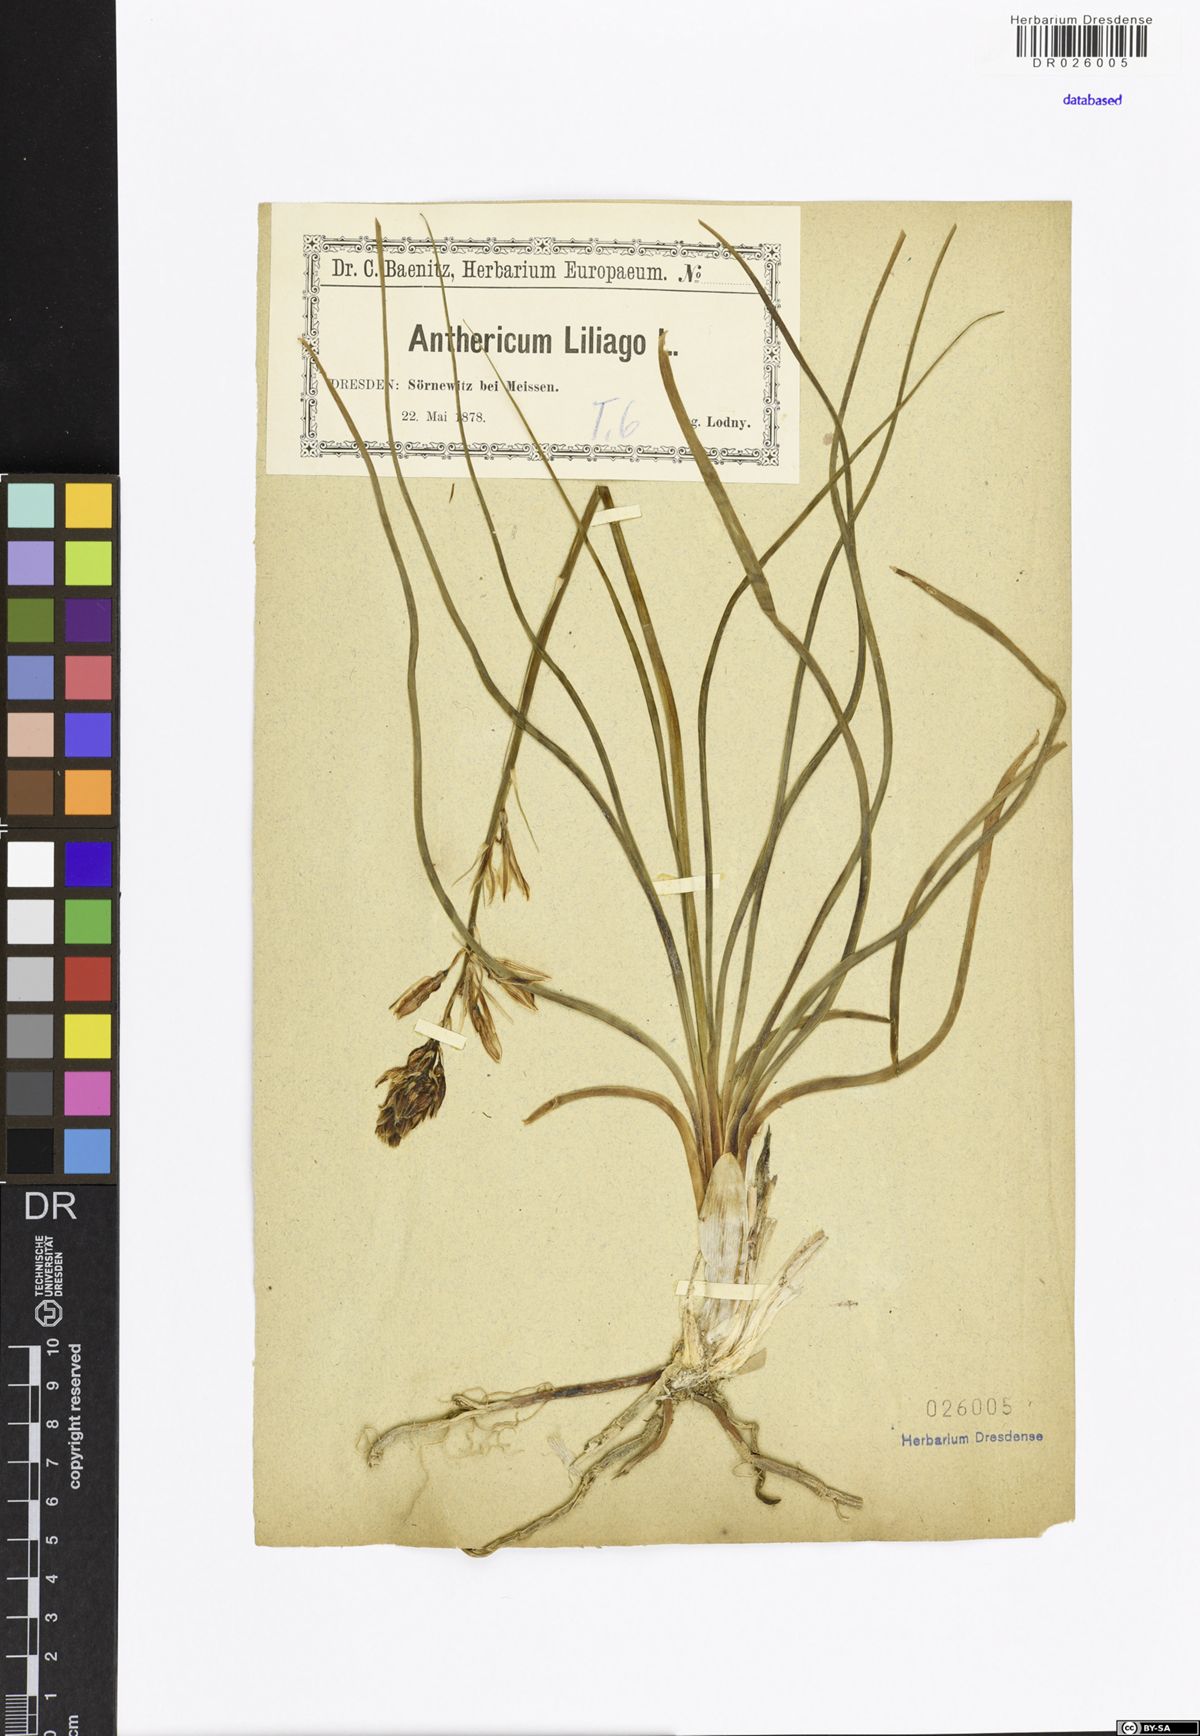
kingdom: Plantae
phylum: Tracheophyta
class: Liliopsida
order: Asparagales
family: Asparagaceae
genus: Anthericum
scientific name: Anthericum liliago
